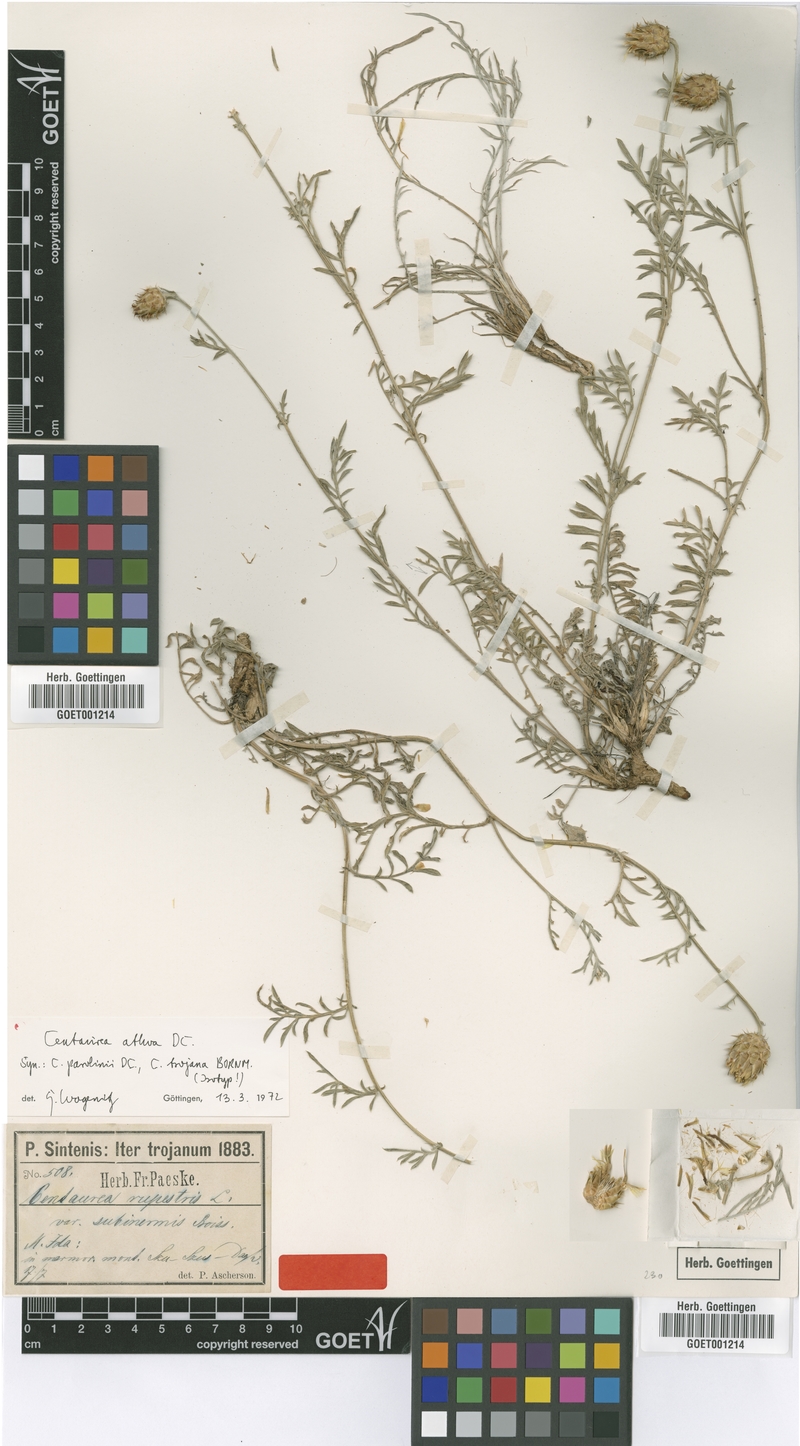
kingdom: Plantae
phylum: Tracheophyta
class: Magnoliopsida
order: Asterales
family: Asteraceae
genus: Centaurea
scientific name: Centaurea athoa
